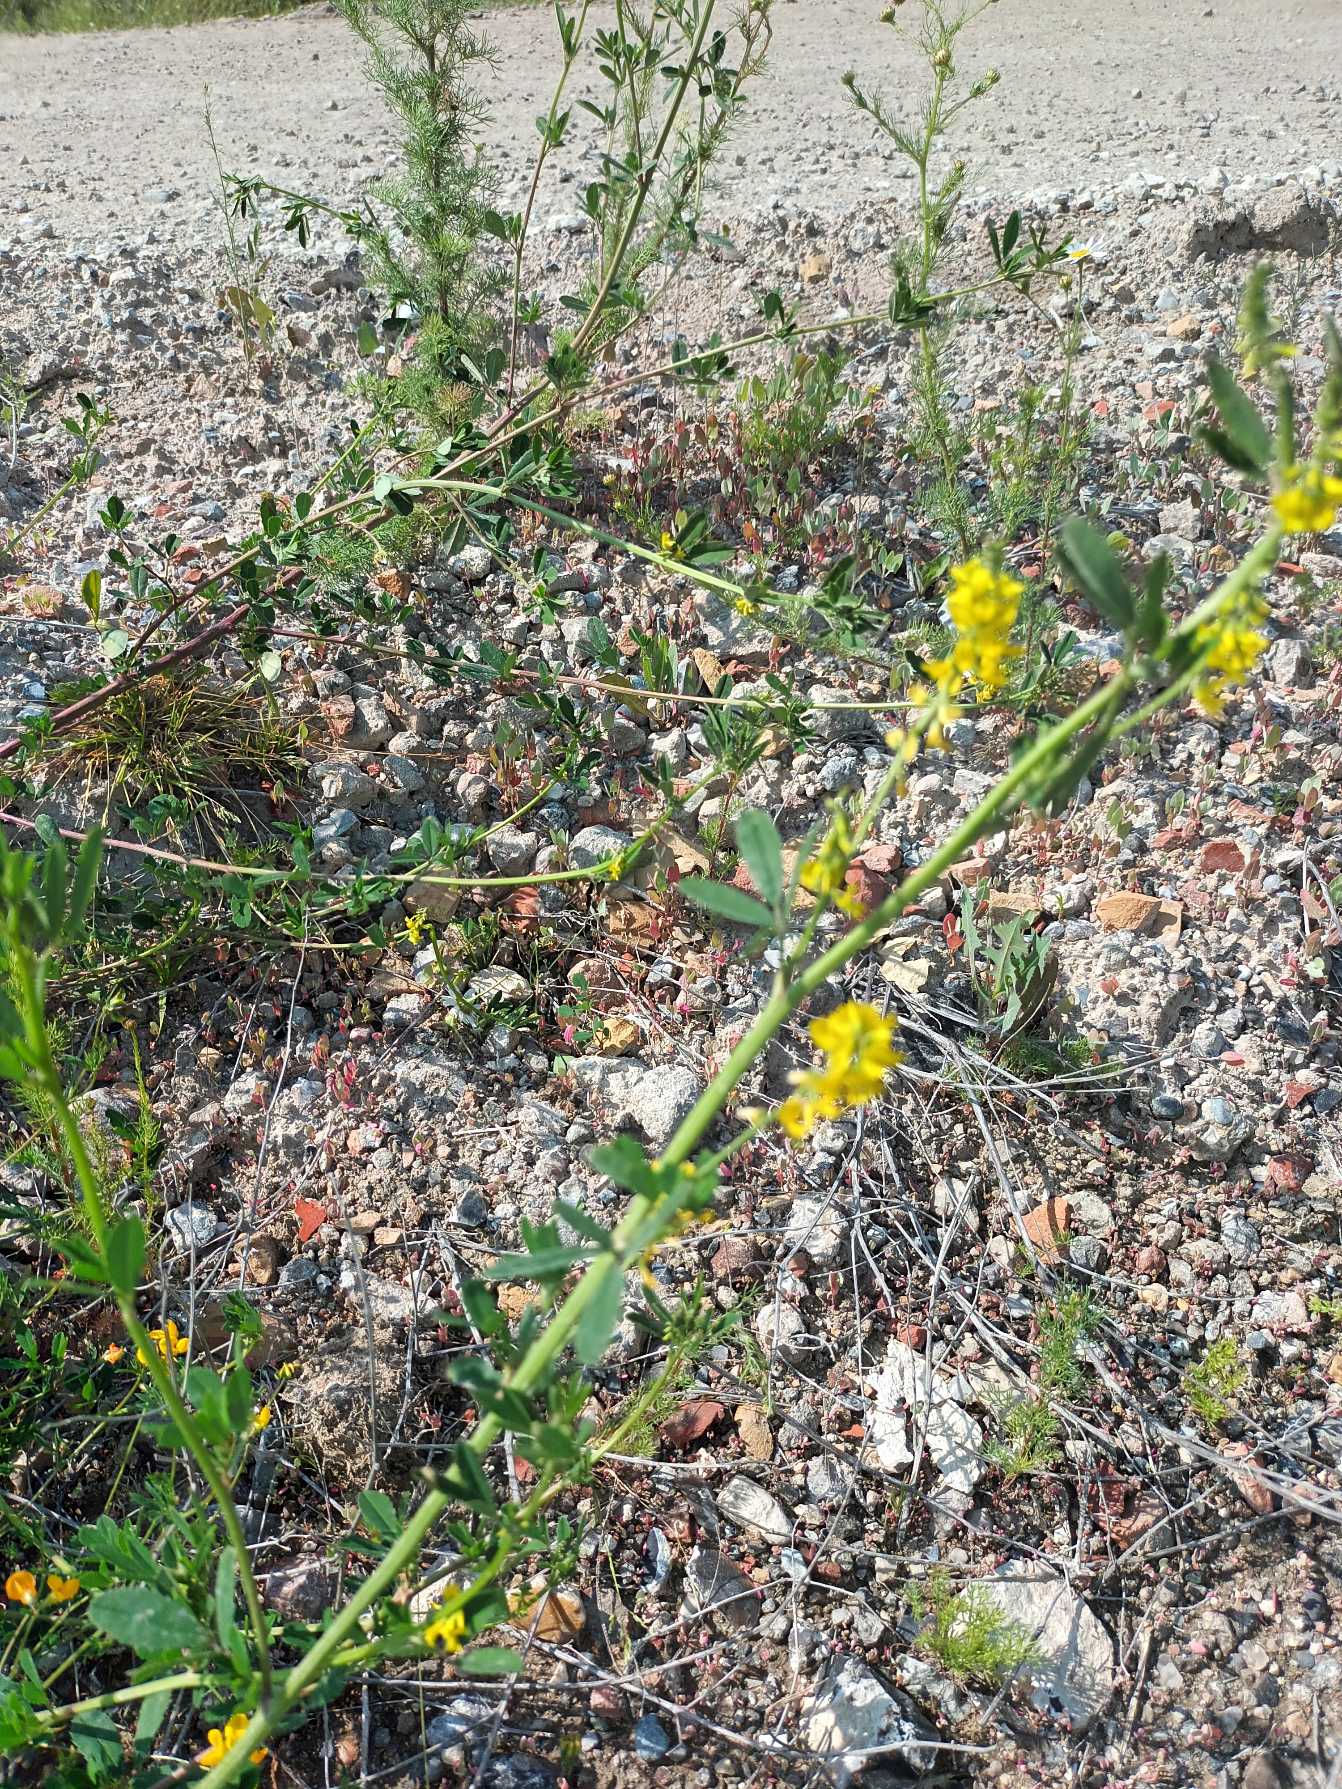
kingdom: Plantae
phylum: Tracheophyta
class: Magnoliopsida
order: Fabales
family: Fabaceae
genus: Melilotus
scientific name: Melilotus altissimus
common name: Høj stenkløver
